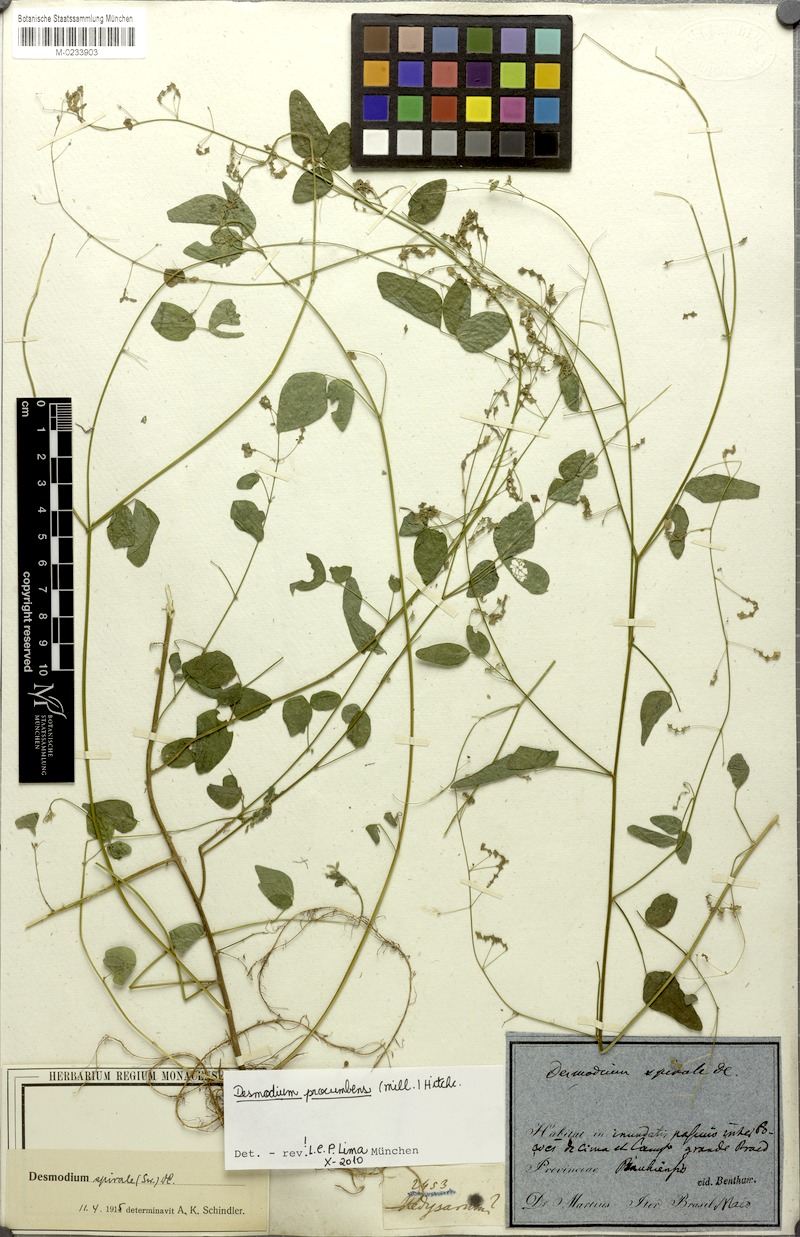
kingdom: Plantae
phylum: Tracheophyta
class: Magnoliopsida
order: Fabales
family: Fabaceae
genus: Desmodium
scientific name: Desmodium procumbens
